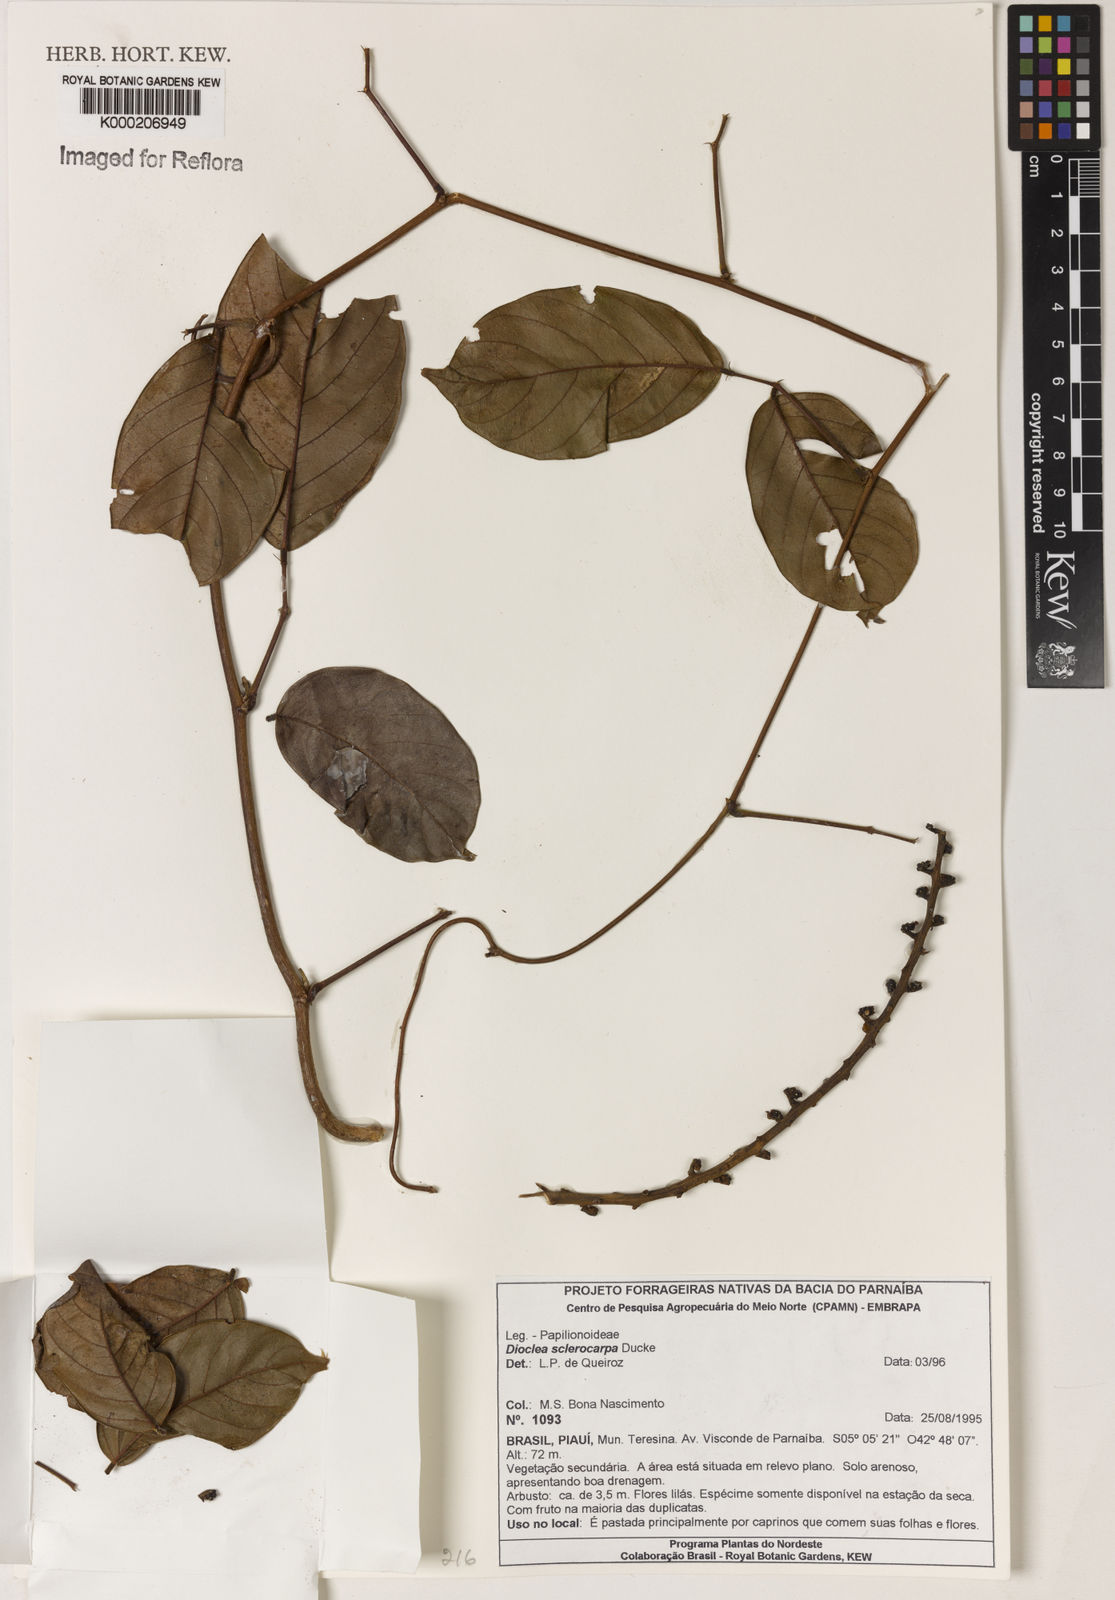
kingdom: Plantae
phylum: Tracheophyta
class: Magnoliopsida
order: Fabales
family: Fabaceae
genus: Macropsychanthus
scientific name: Macropsychanthus sclerocarpus
